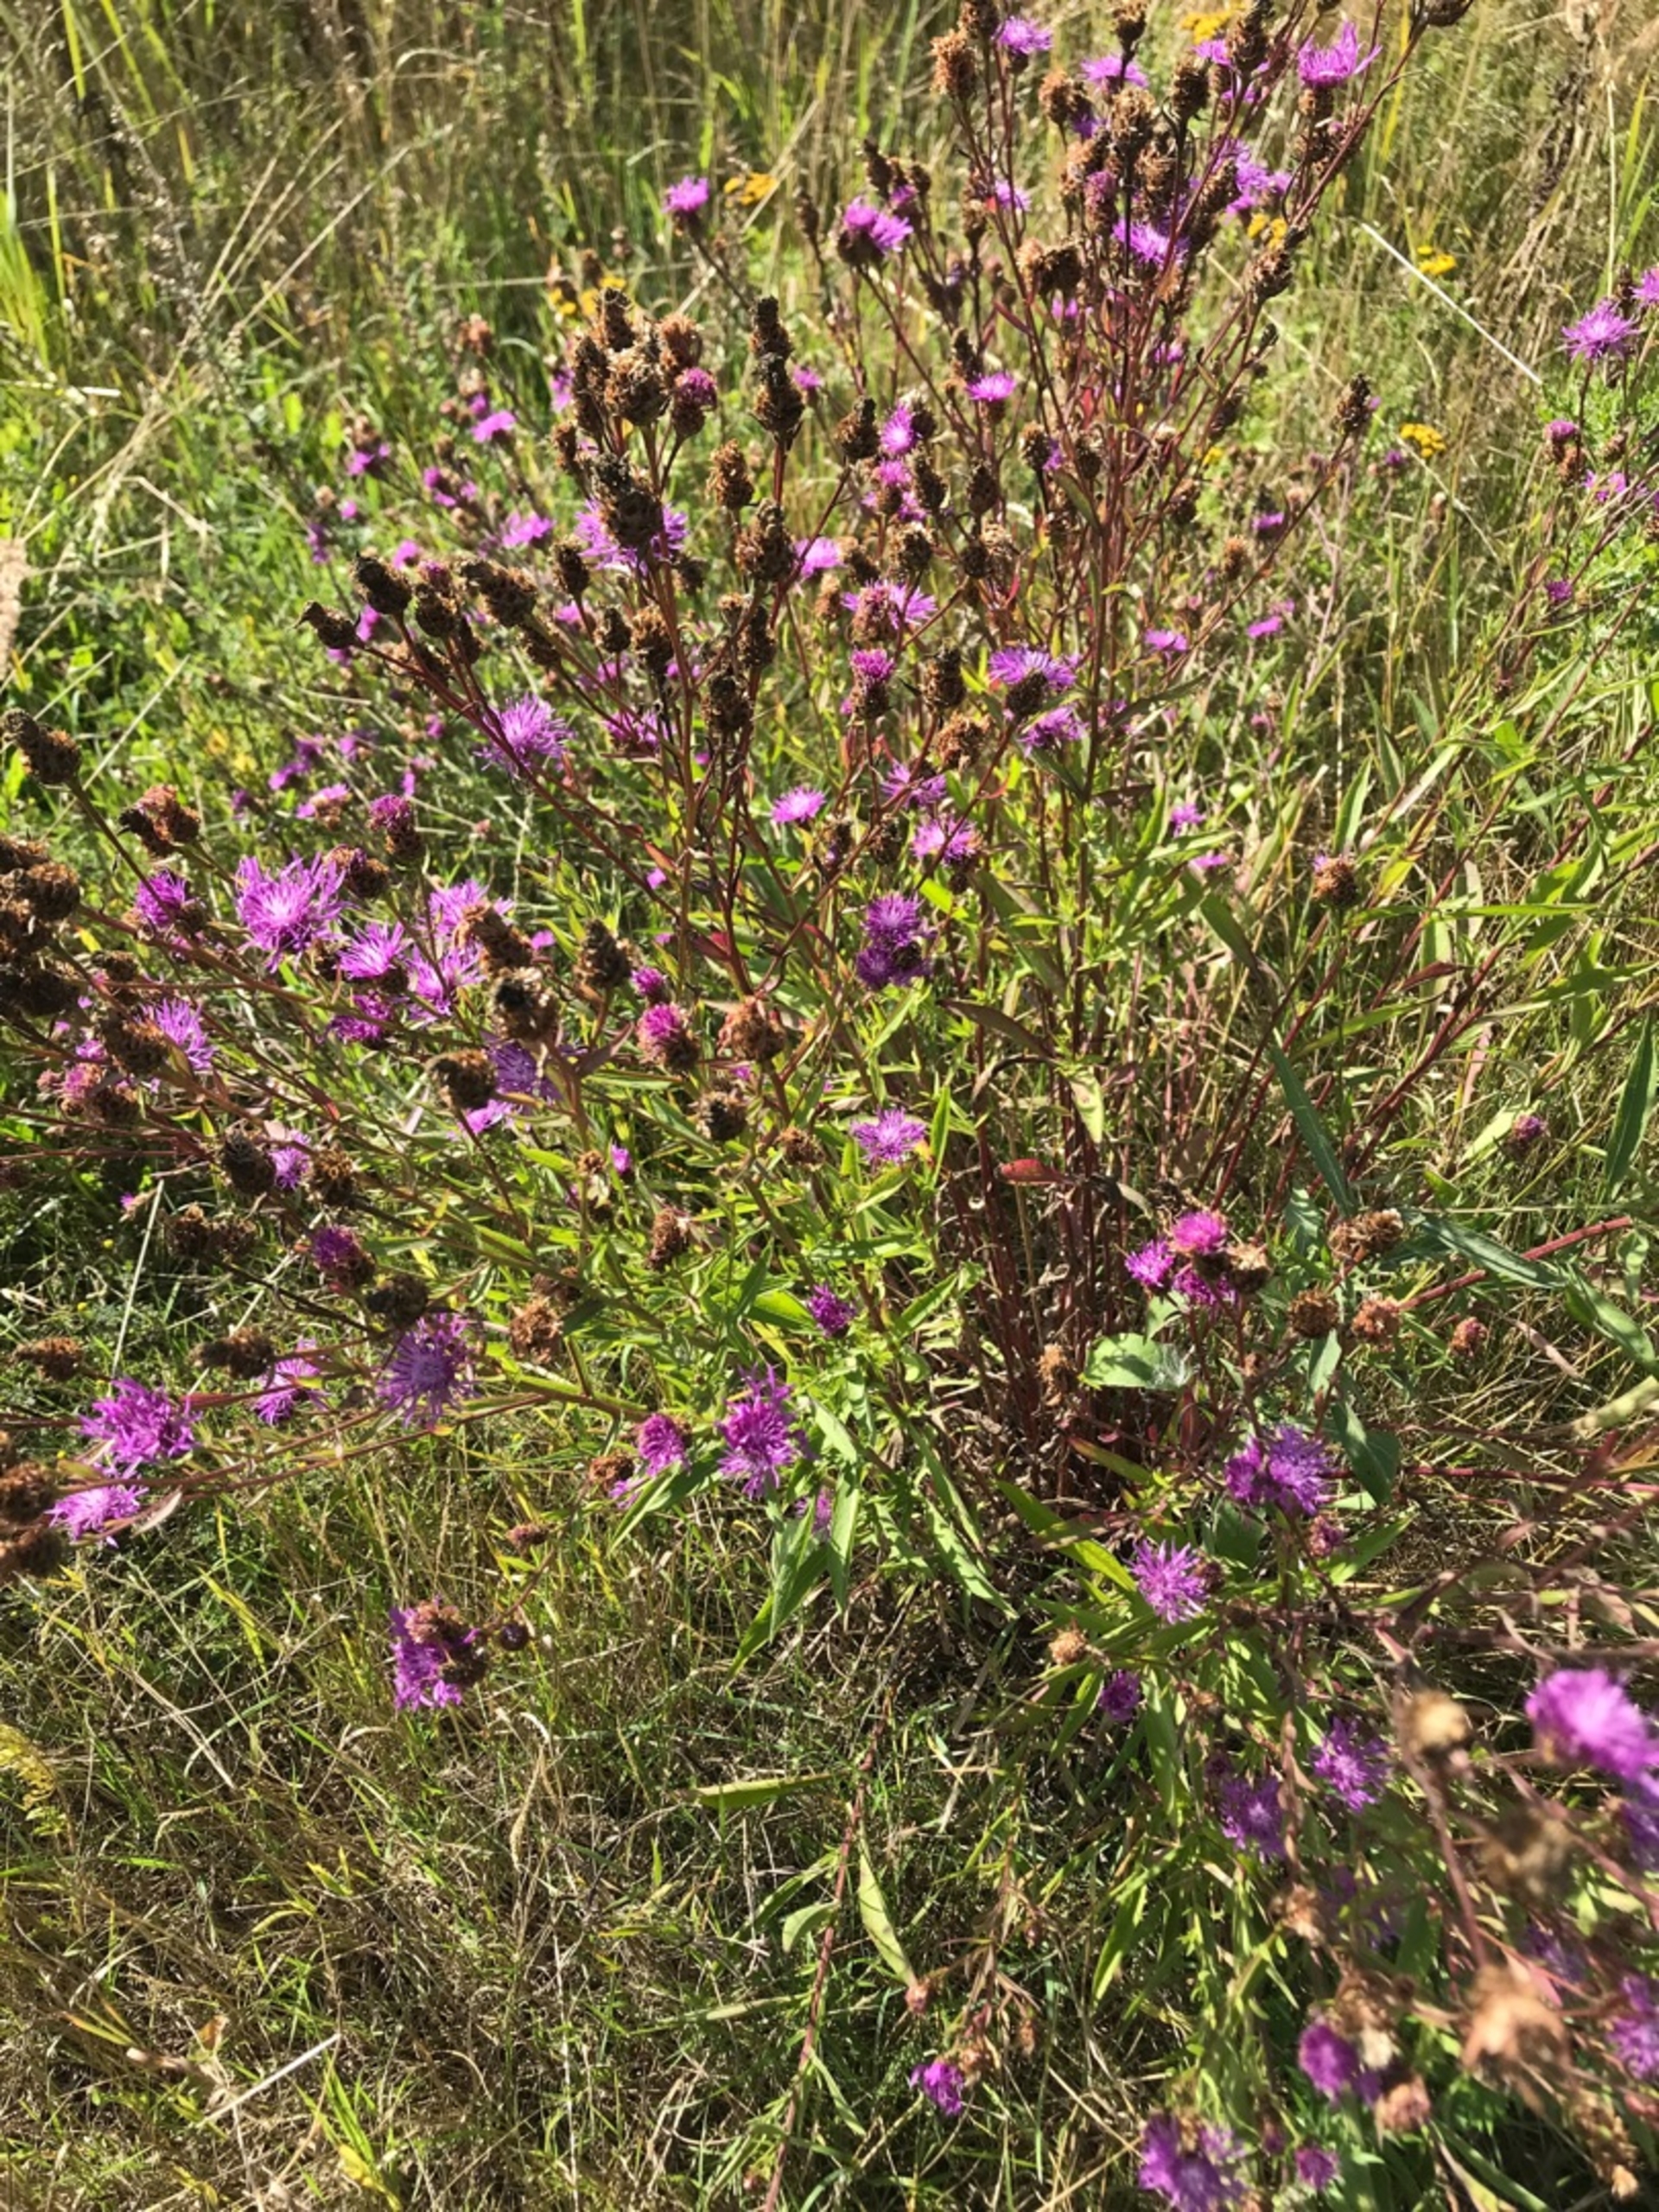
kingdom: Plantae
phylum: Tracheophyta
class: Magnoliopsida
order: Asterales
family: Asteraceae
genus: Centaurea
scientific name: Centaurea jacea
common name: Almindelig knopurt
